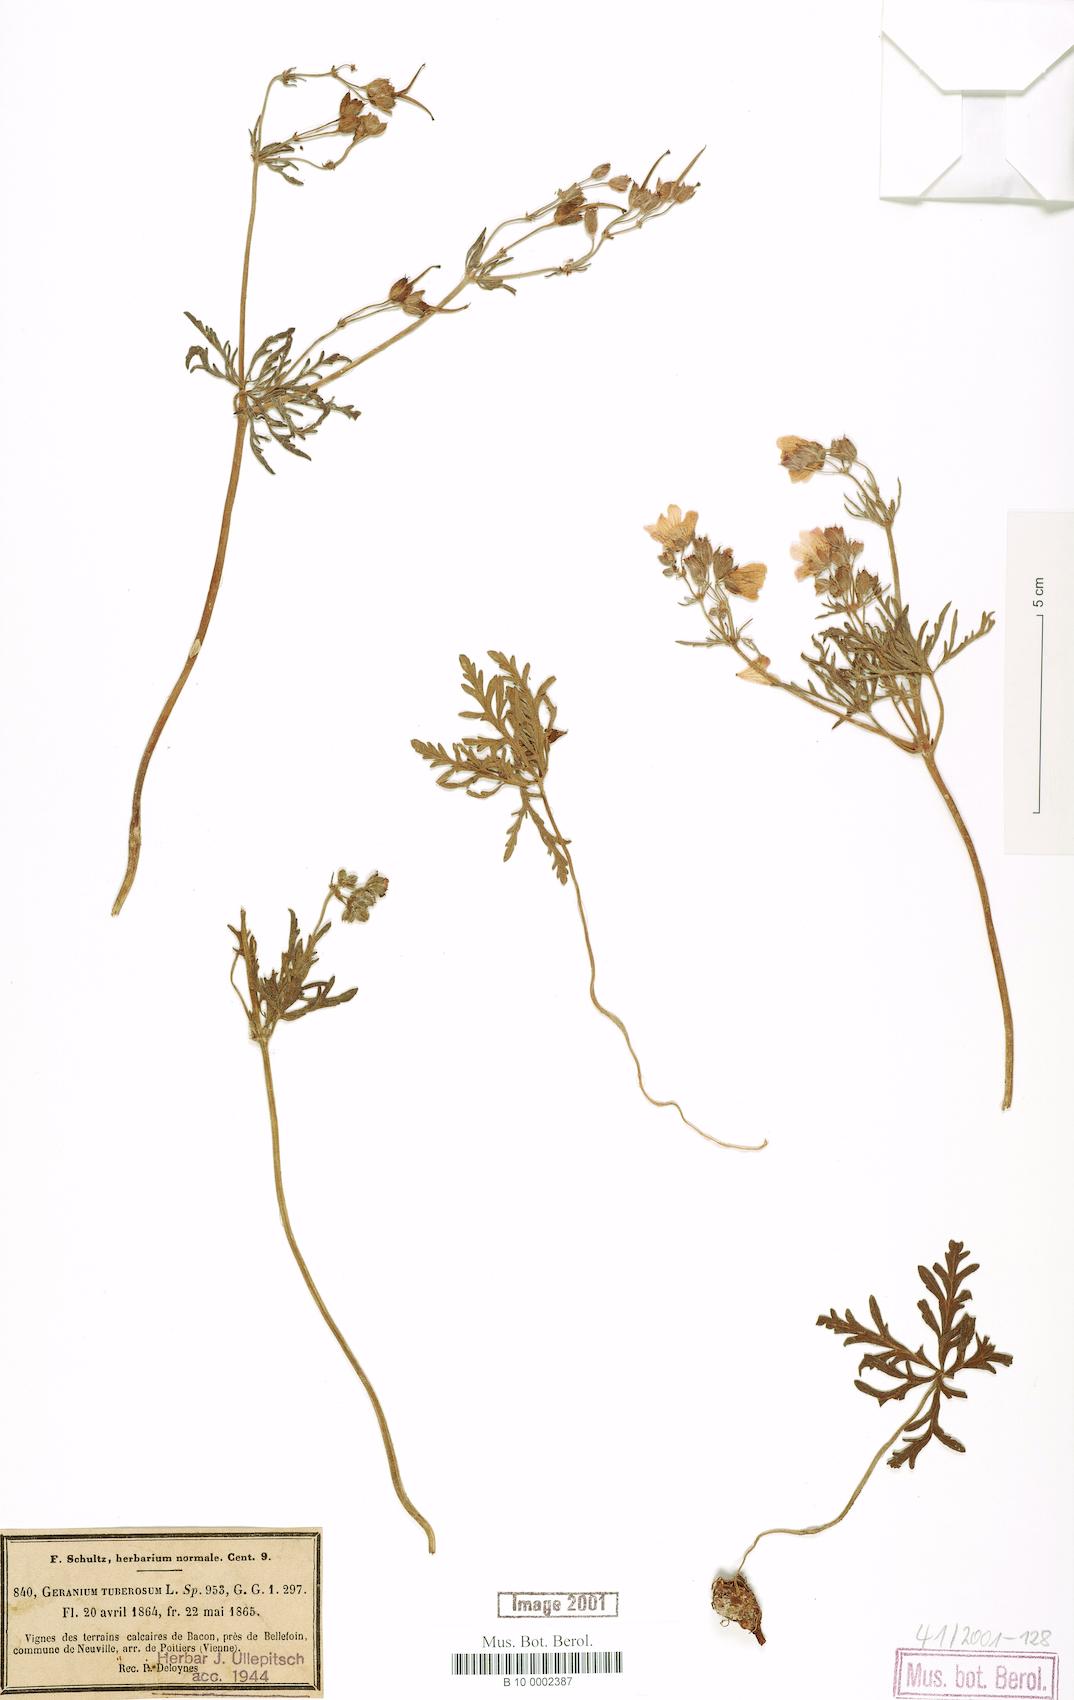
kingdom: Plantae
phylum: Tracheophyta
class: Magnoliopsida
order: Geraniales
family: Geraniaceae
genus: Geranium
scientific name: Geranium tuberosum
